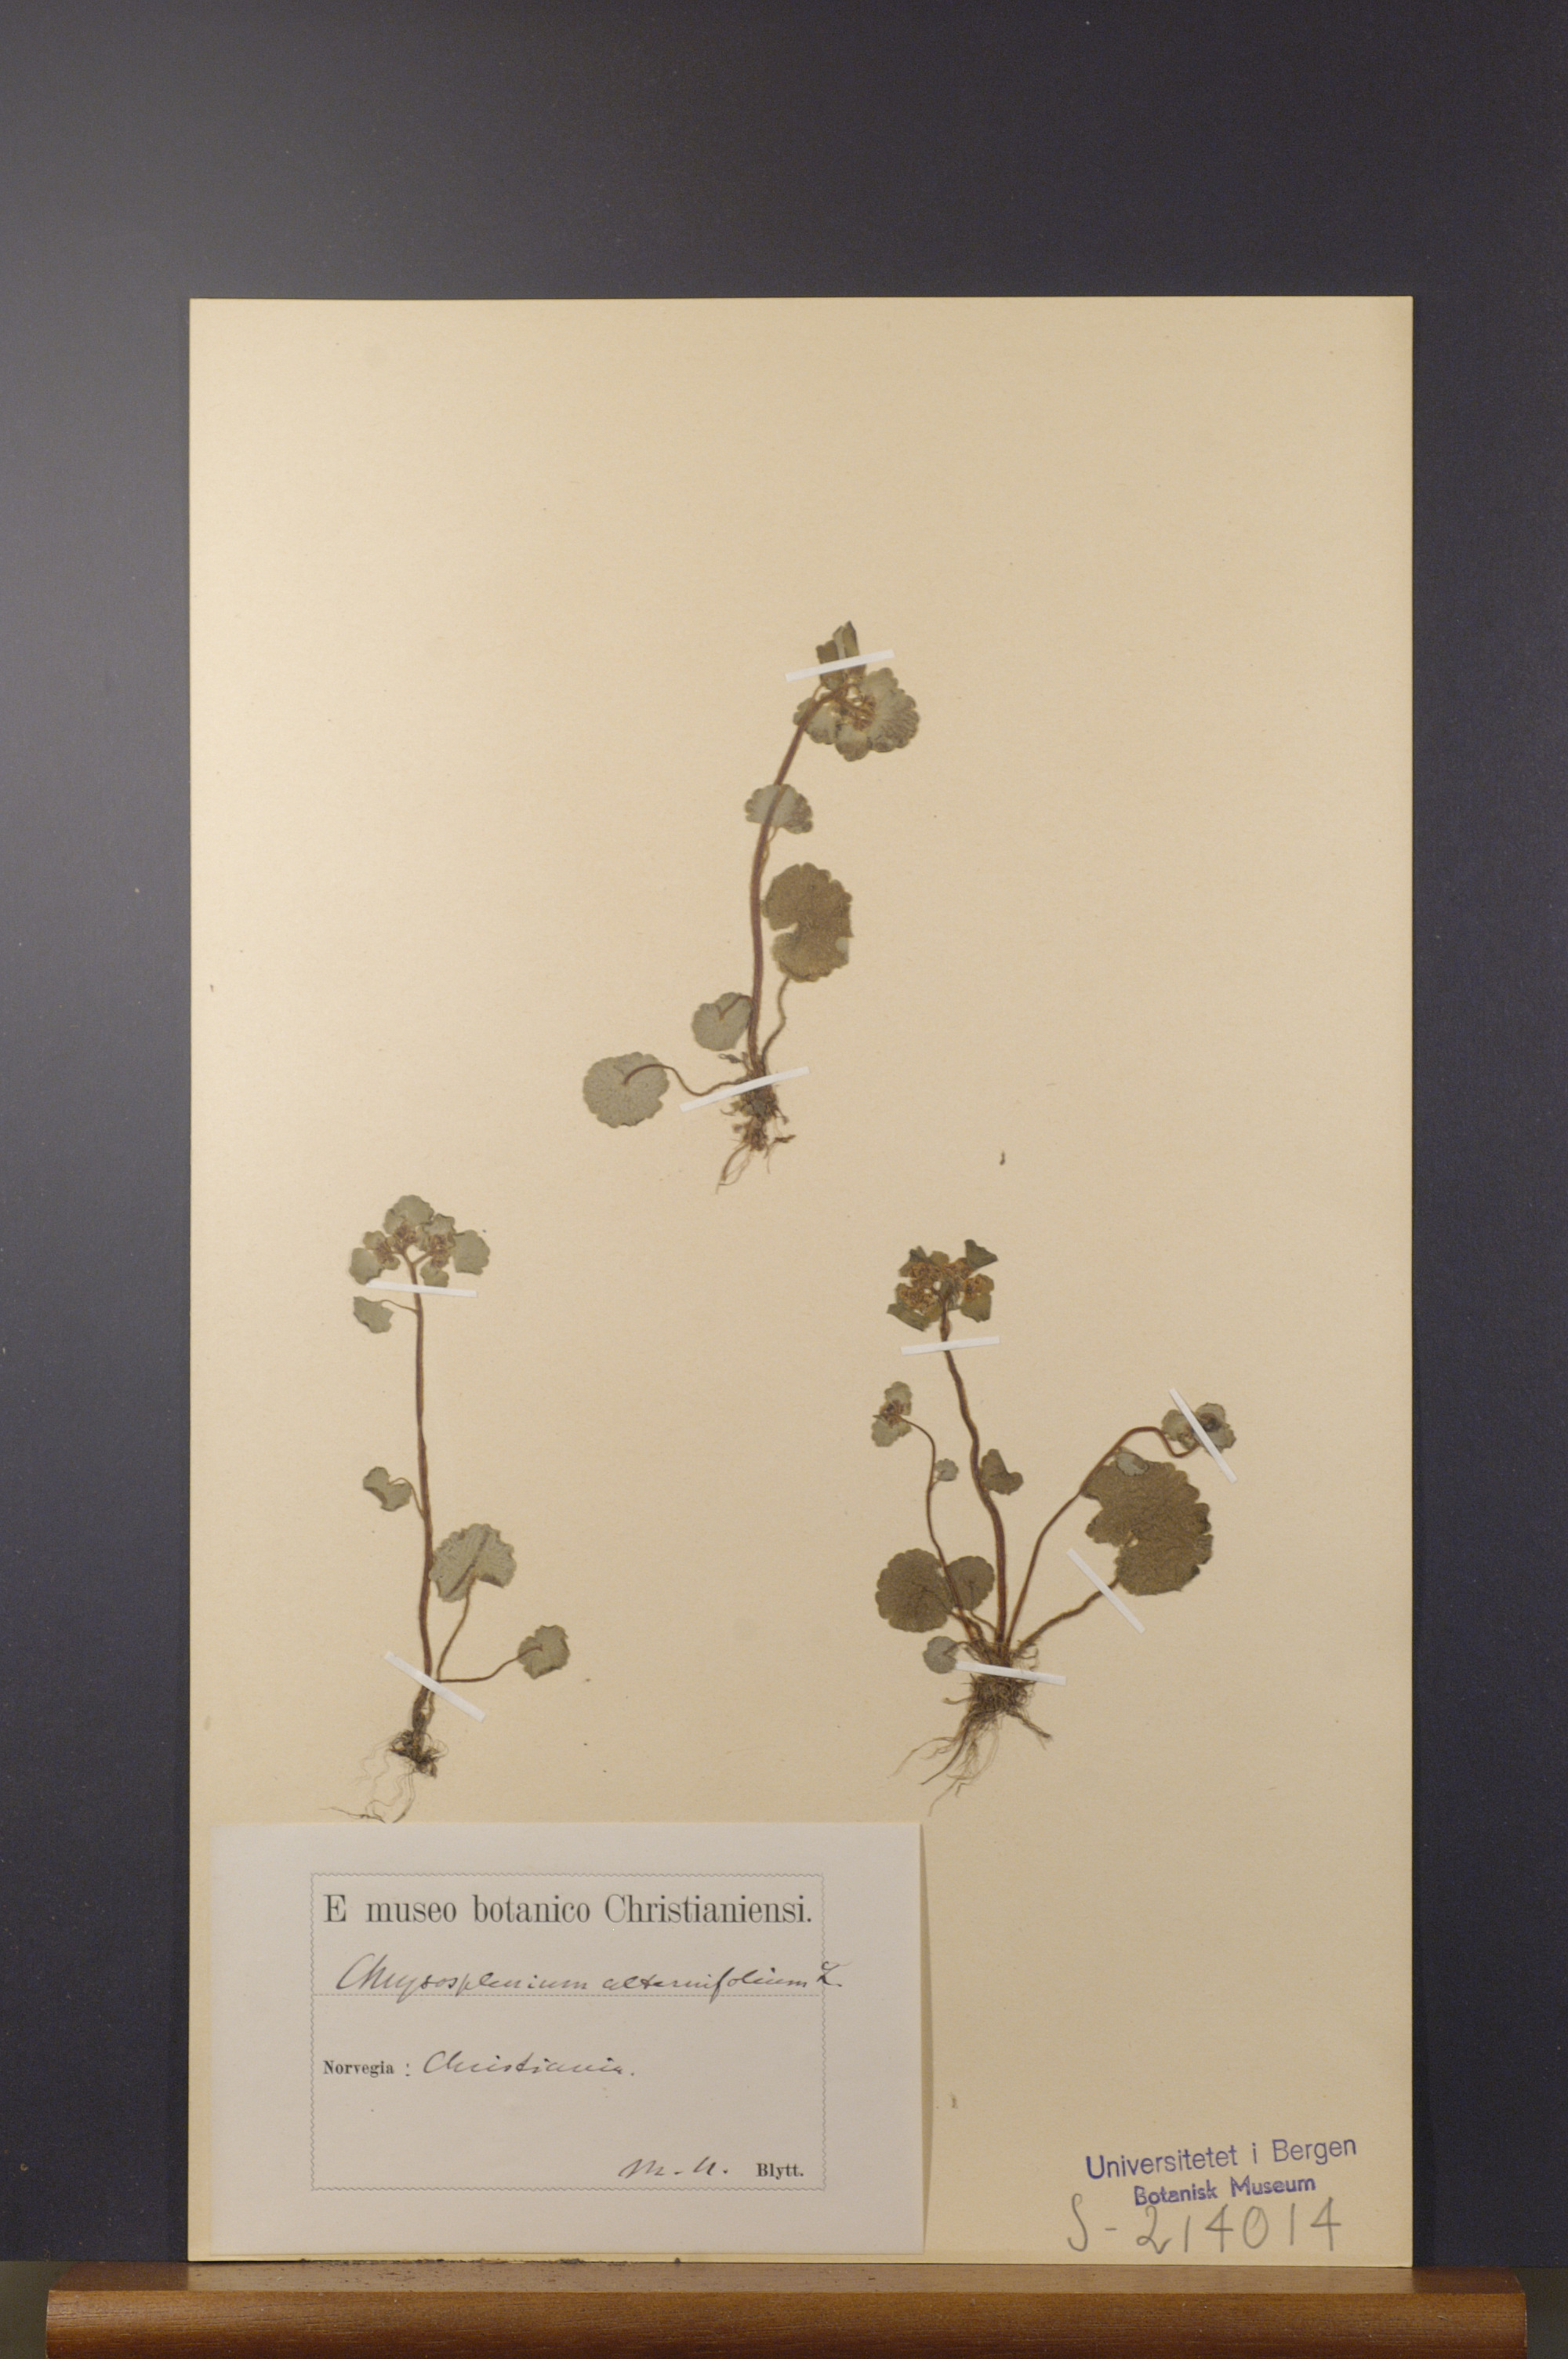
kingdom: Plantae
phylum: Tracheophyta
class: Magnoliopsida
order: Saxifragales
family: Saxifragaceae
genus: Chrysosplenium
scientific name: Chrysosplenium alternifolium
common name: Alternate-leaved golden-saxifrage
